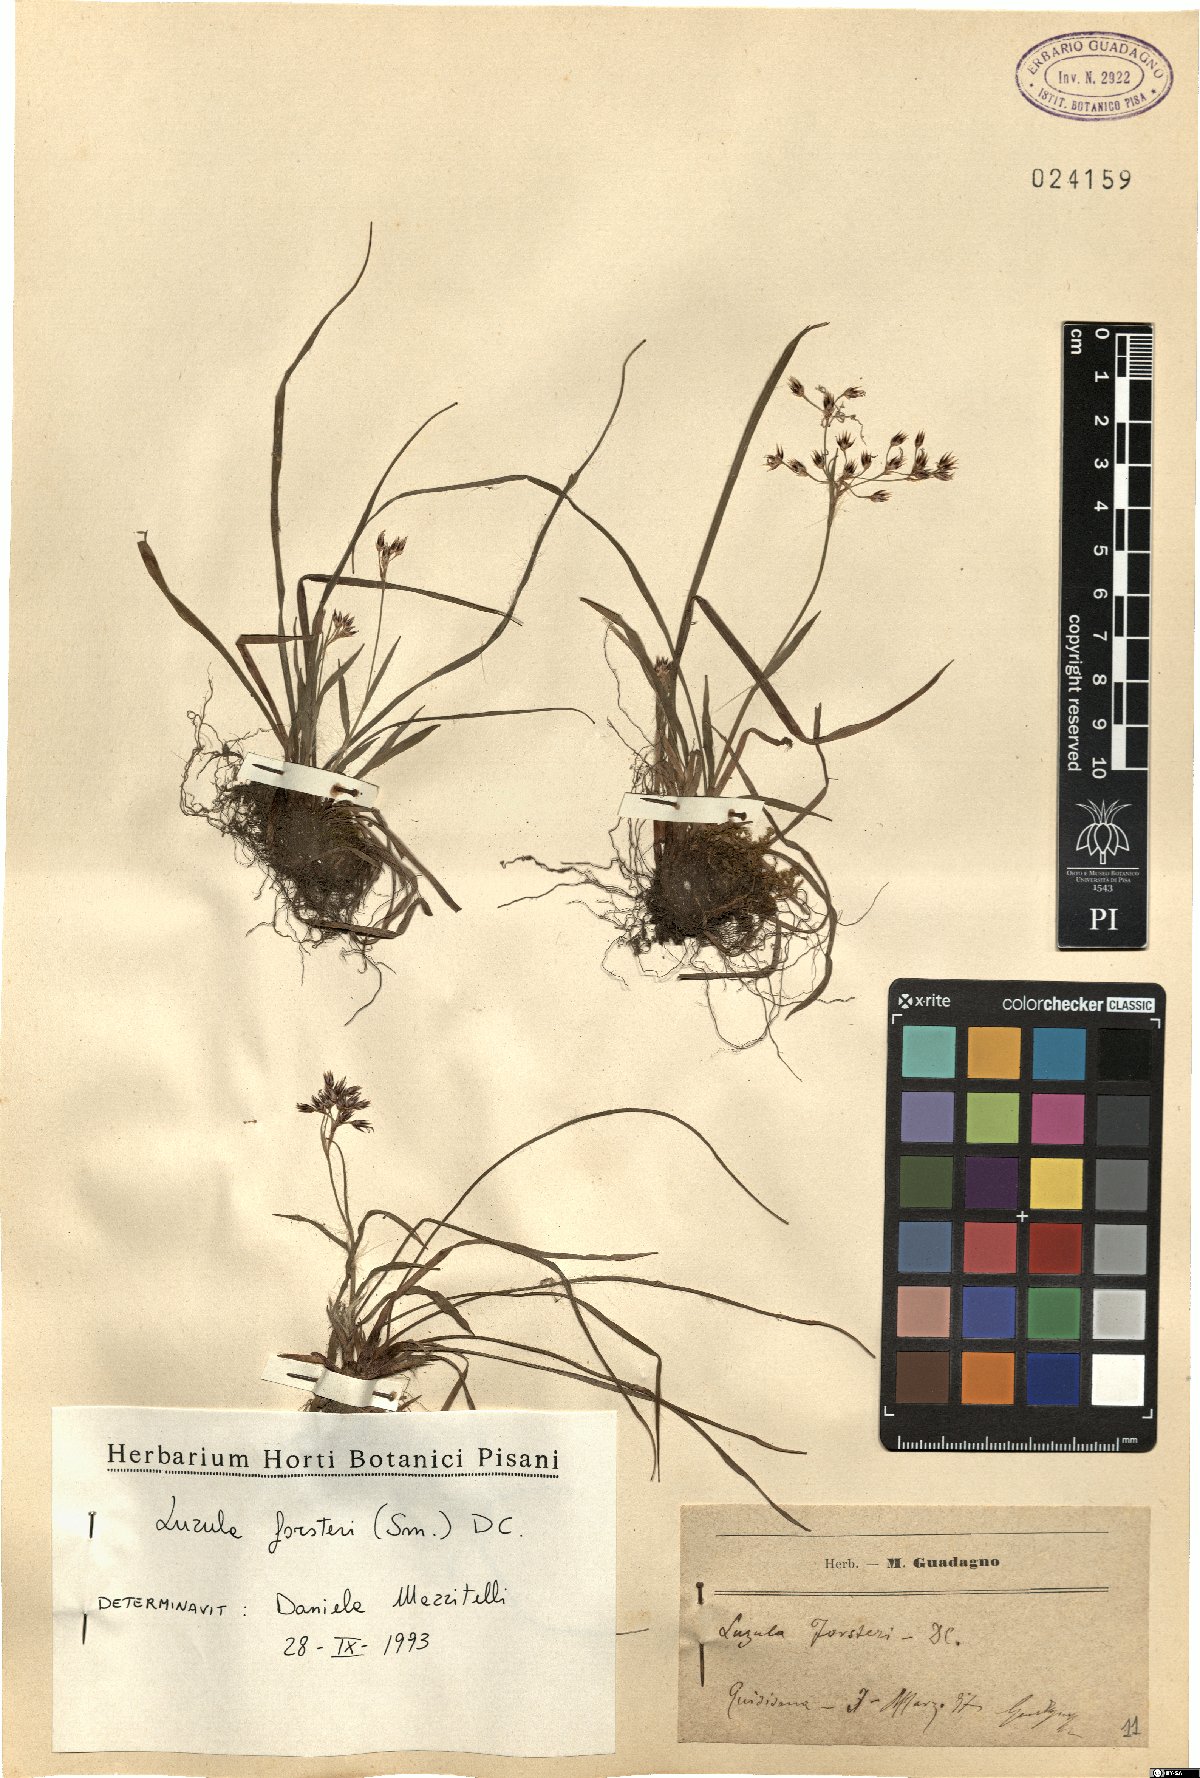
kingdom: Plantae
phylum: Tracheophyta
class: Liliopsida
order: Poales
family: Juncaceae
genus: Luzula
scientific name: Luzula forsteri
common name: Southern wood-rush
